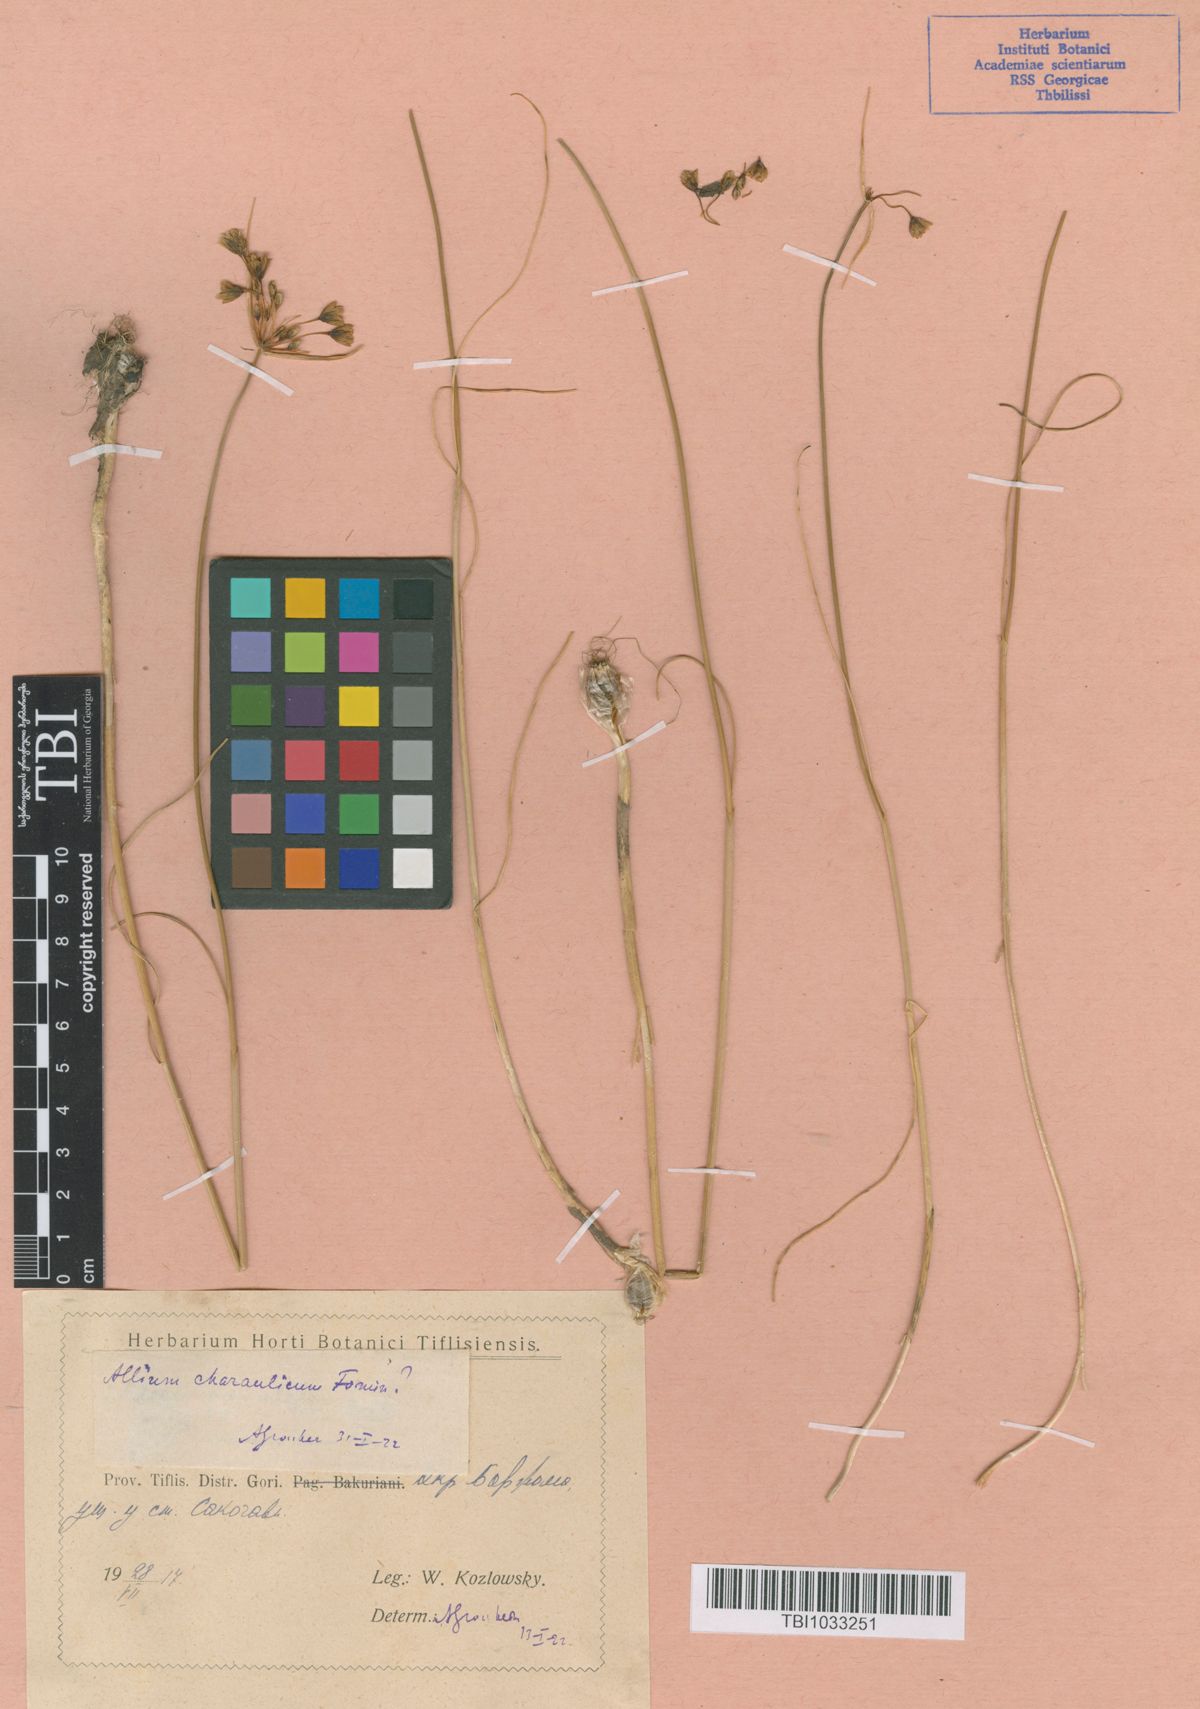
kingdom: Plantae
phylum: Tracheophyta
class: Liliopsida
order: Asparagales
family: Amaryllidaceae
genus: Allium
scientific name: Allium rupestre
